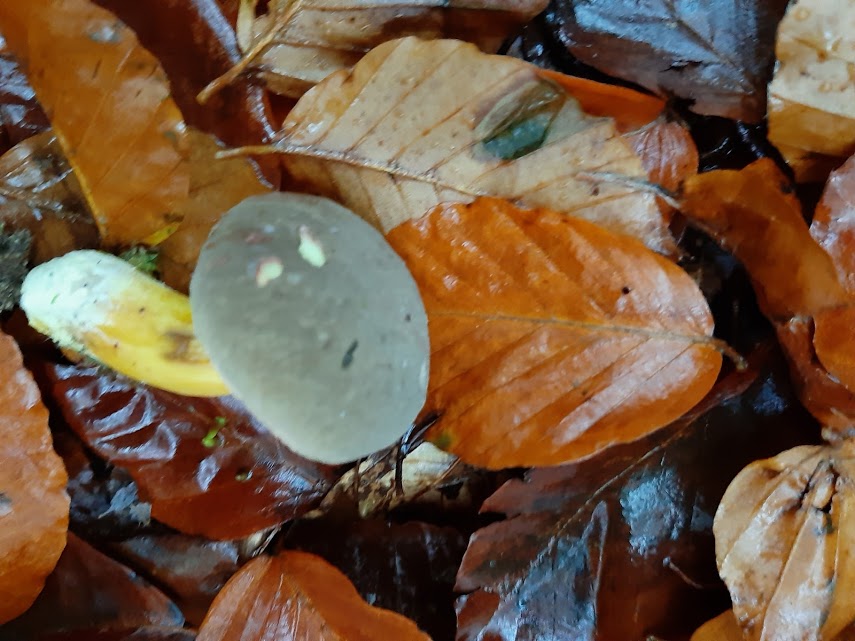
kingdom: Fungi
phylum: Basidiomycota
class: Agaricomycetes
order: Boletales
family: Boletaceae
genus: Xerocomellus
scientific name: Xerocomellus pruinatus
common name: dugget rørhat
